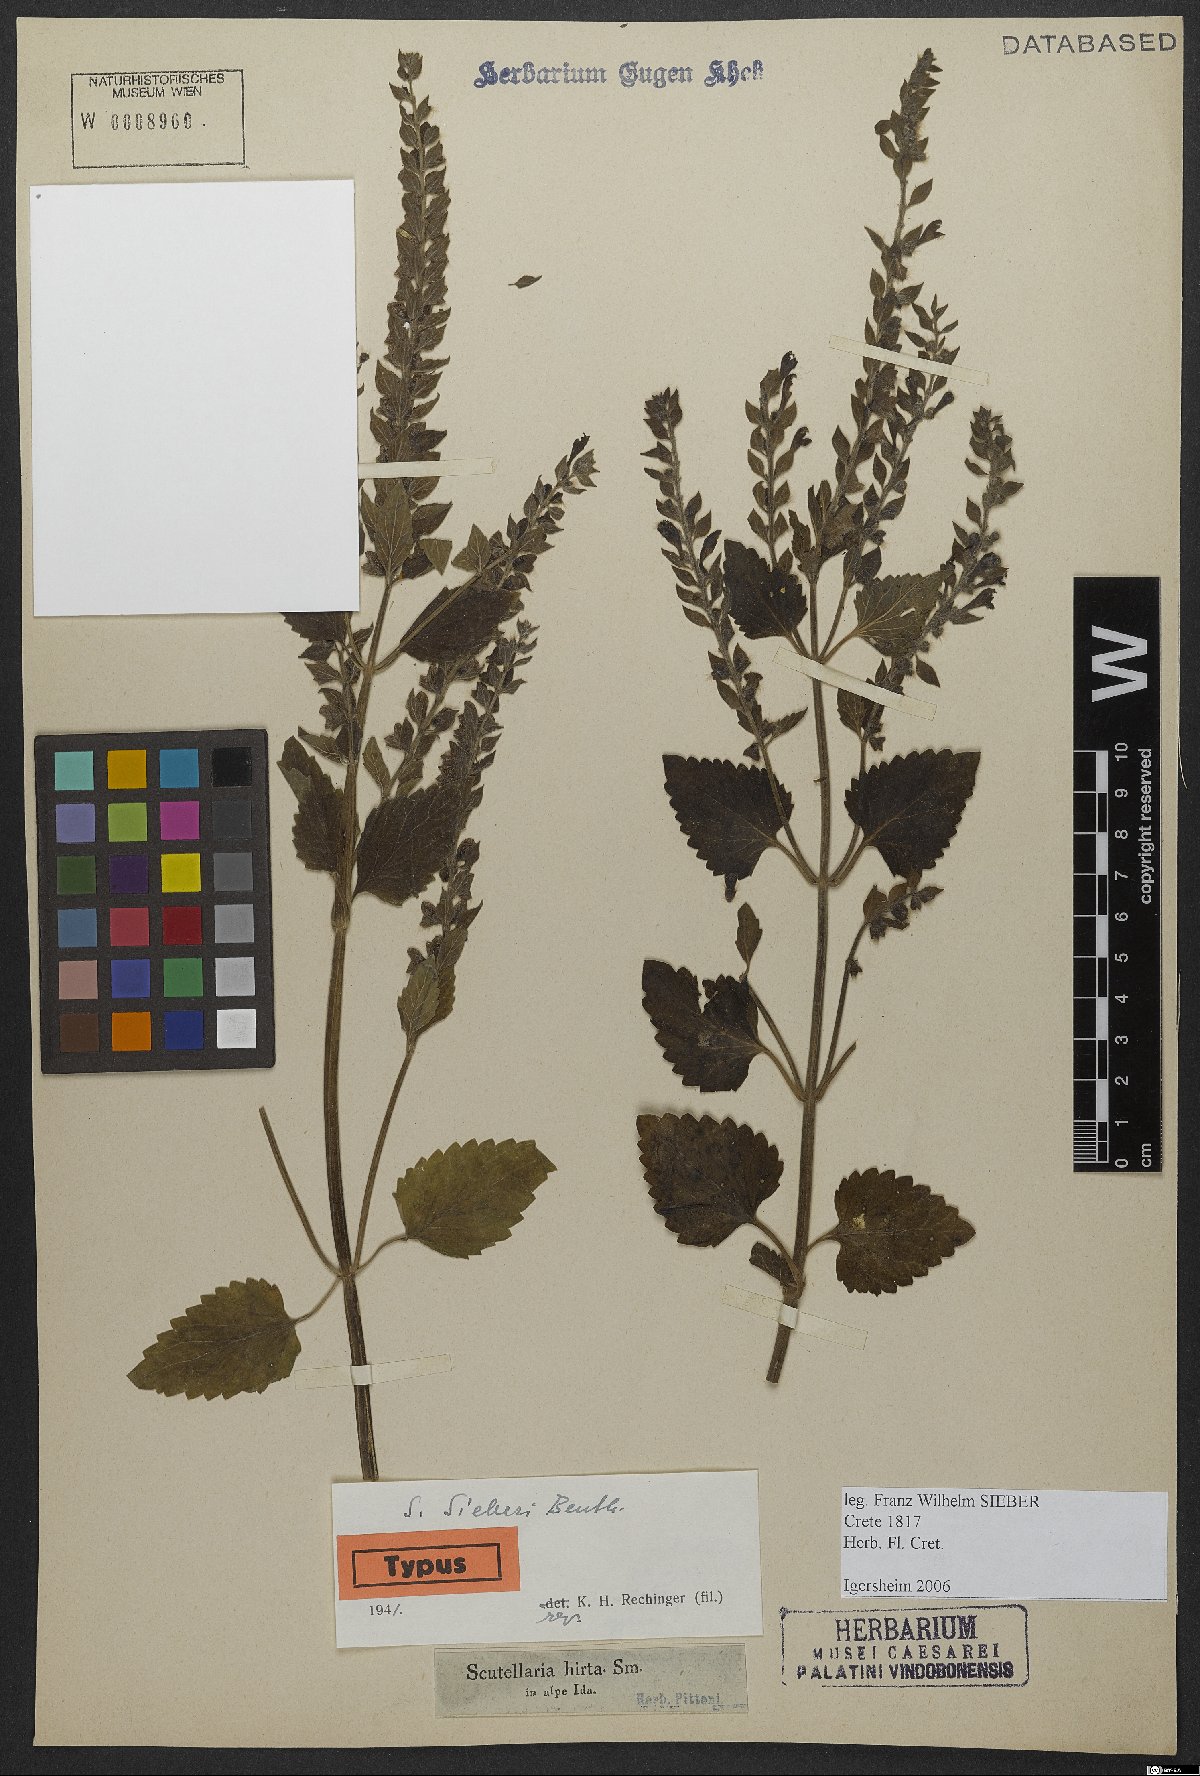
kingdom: Plantae
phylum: Tracheophyta
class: Magnoliopsida
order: Lamiales
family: Lamiaceae
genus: Scutellaria
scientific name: Scutellaria sieberi
